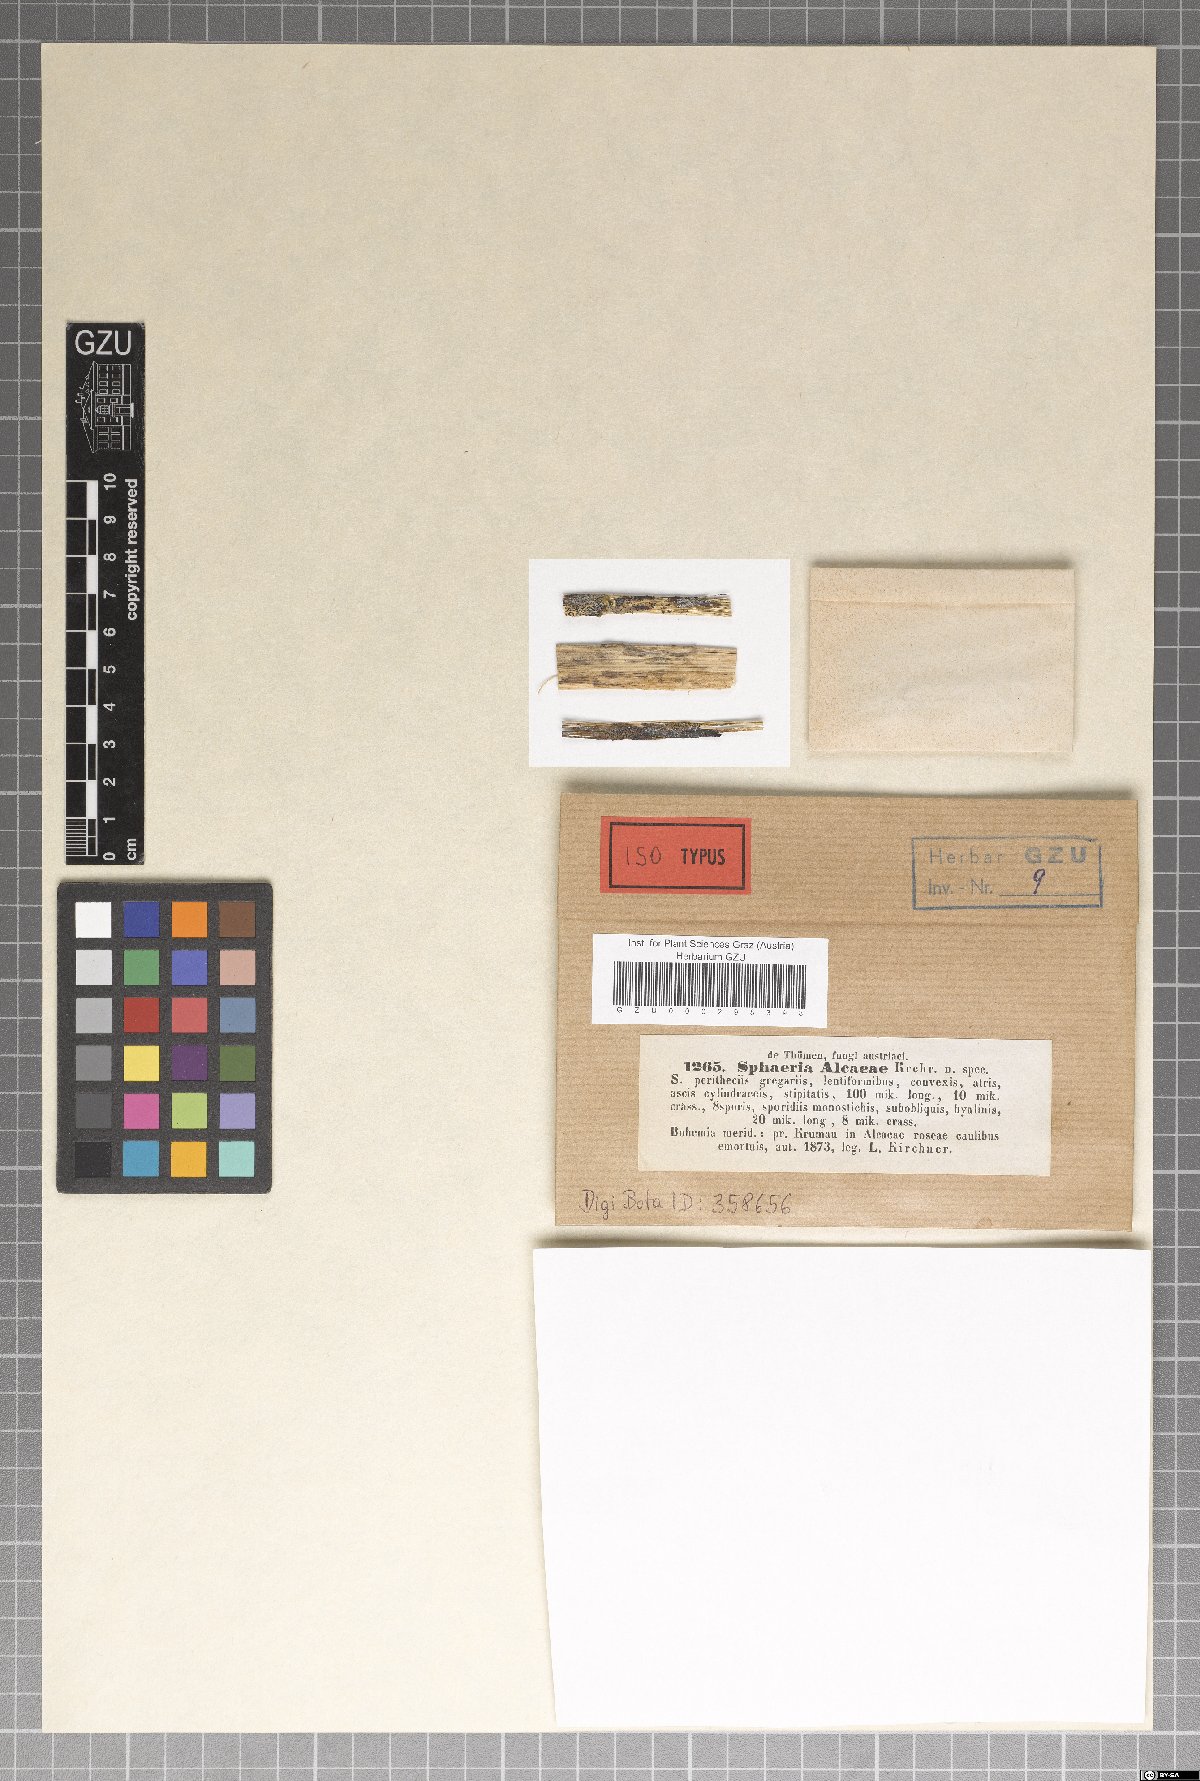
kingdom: Fungi
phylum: Ascomycota
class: Sordariomycetes
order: Xylariales
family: Xylariaceae
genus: Sphaeria
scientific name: Sphaeria
